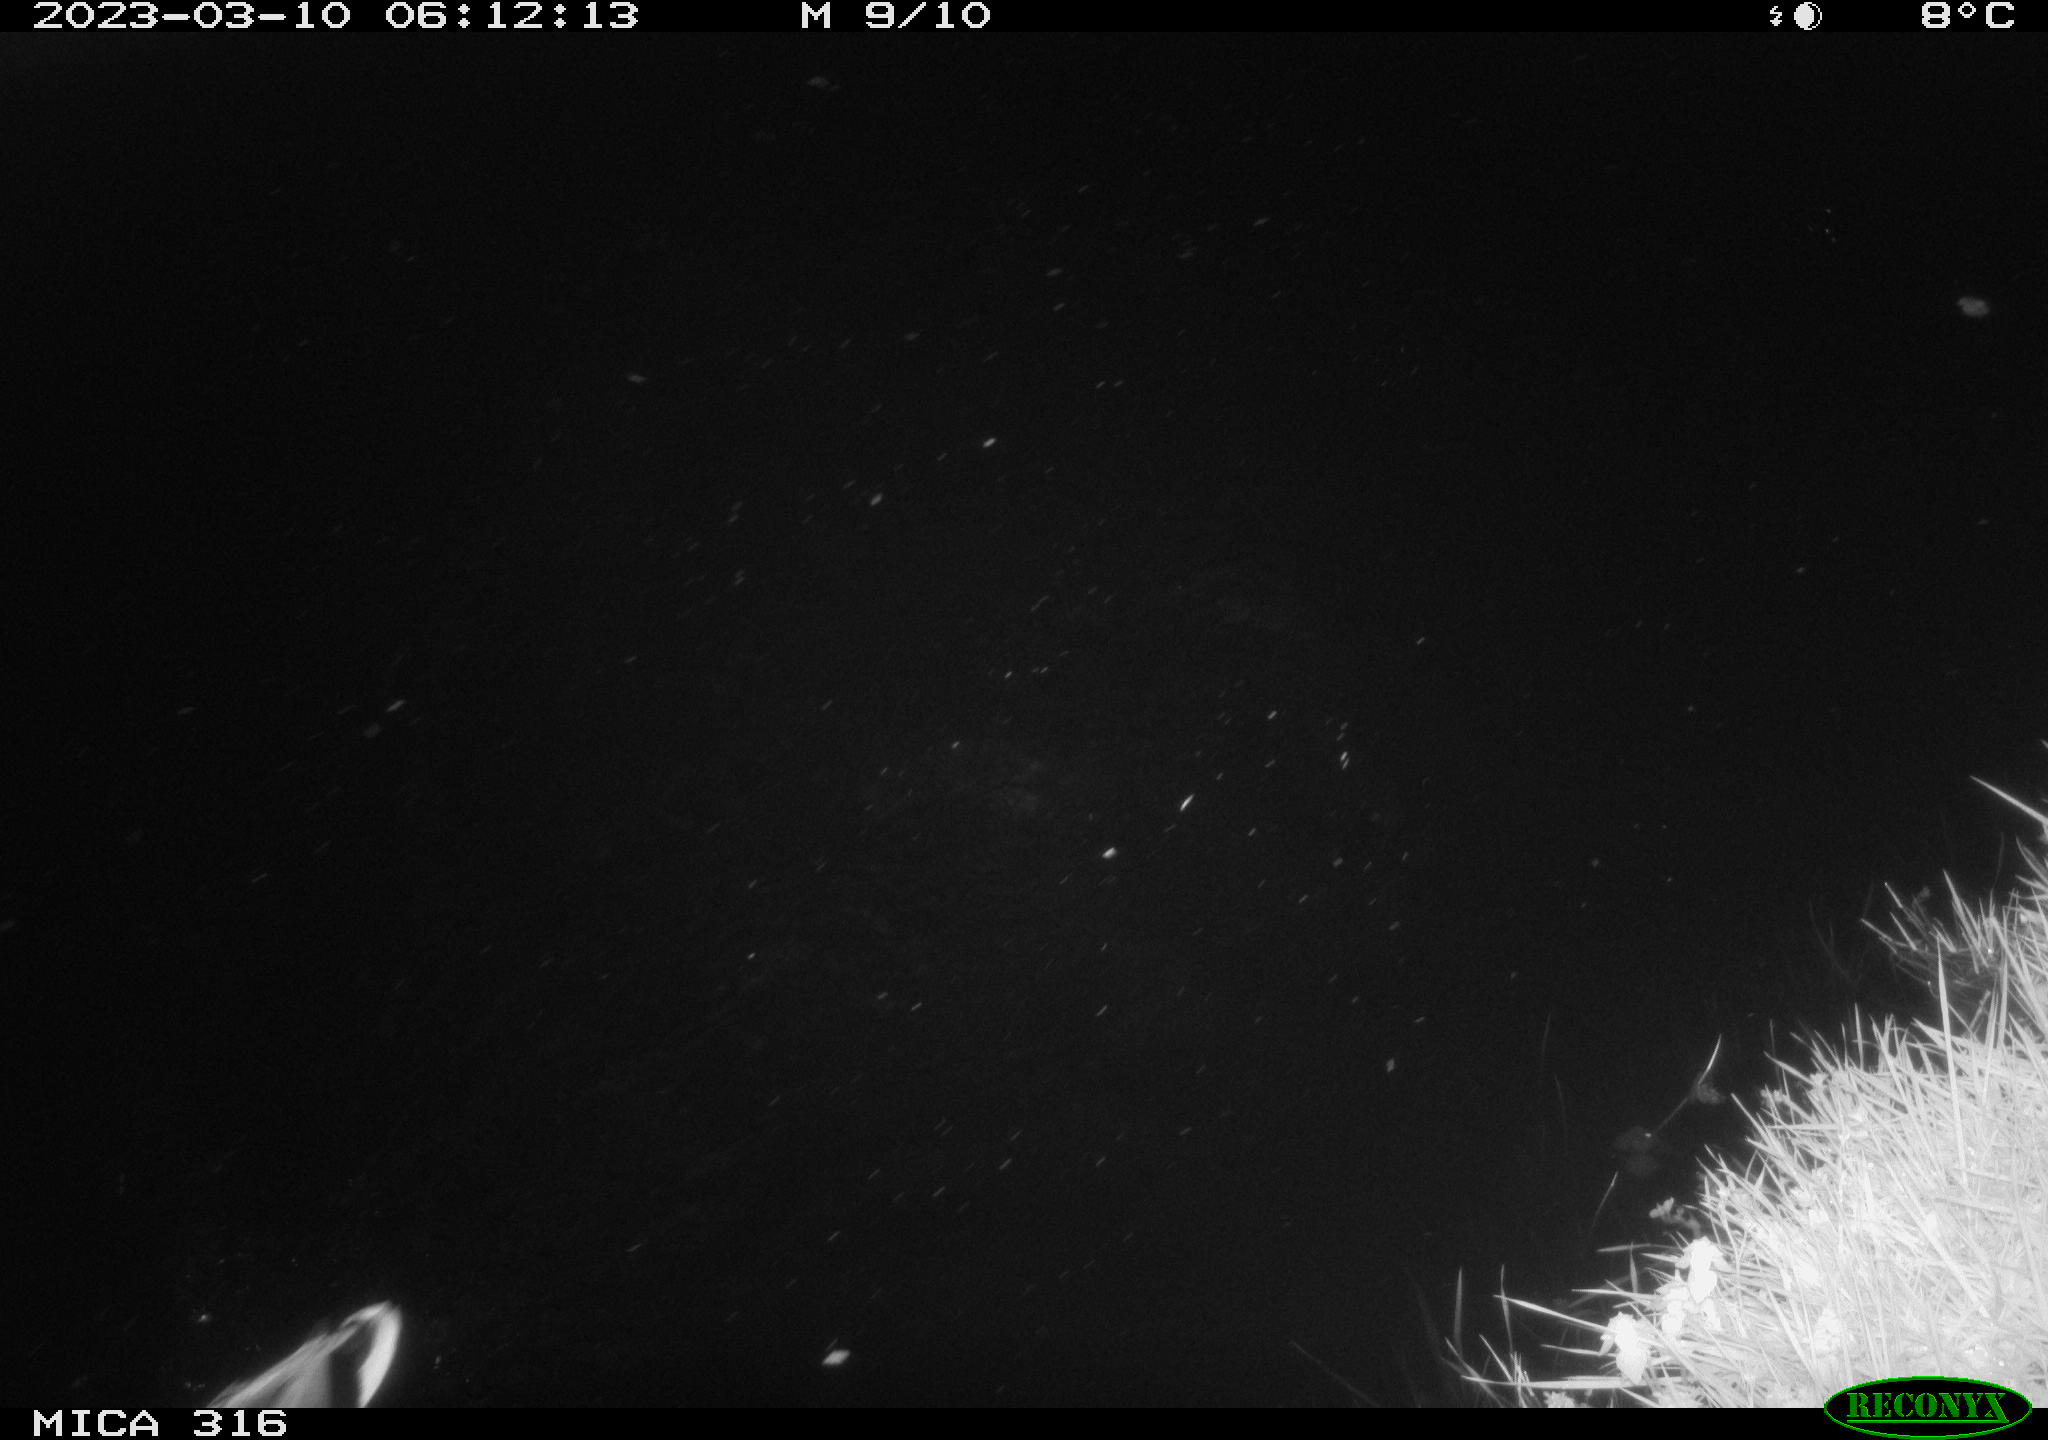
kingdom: Animalia
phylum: Chordata
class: Aves
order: Anseriformes
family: Anatidae
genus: Anas
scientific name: Anas
